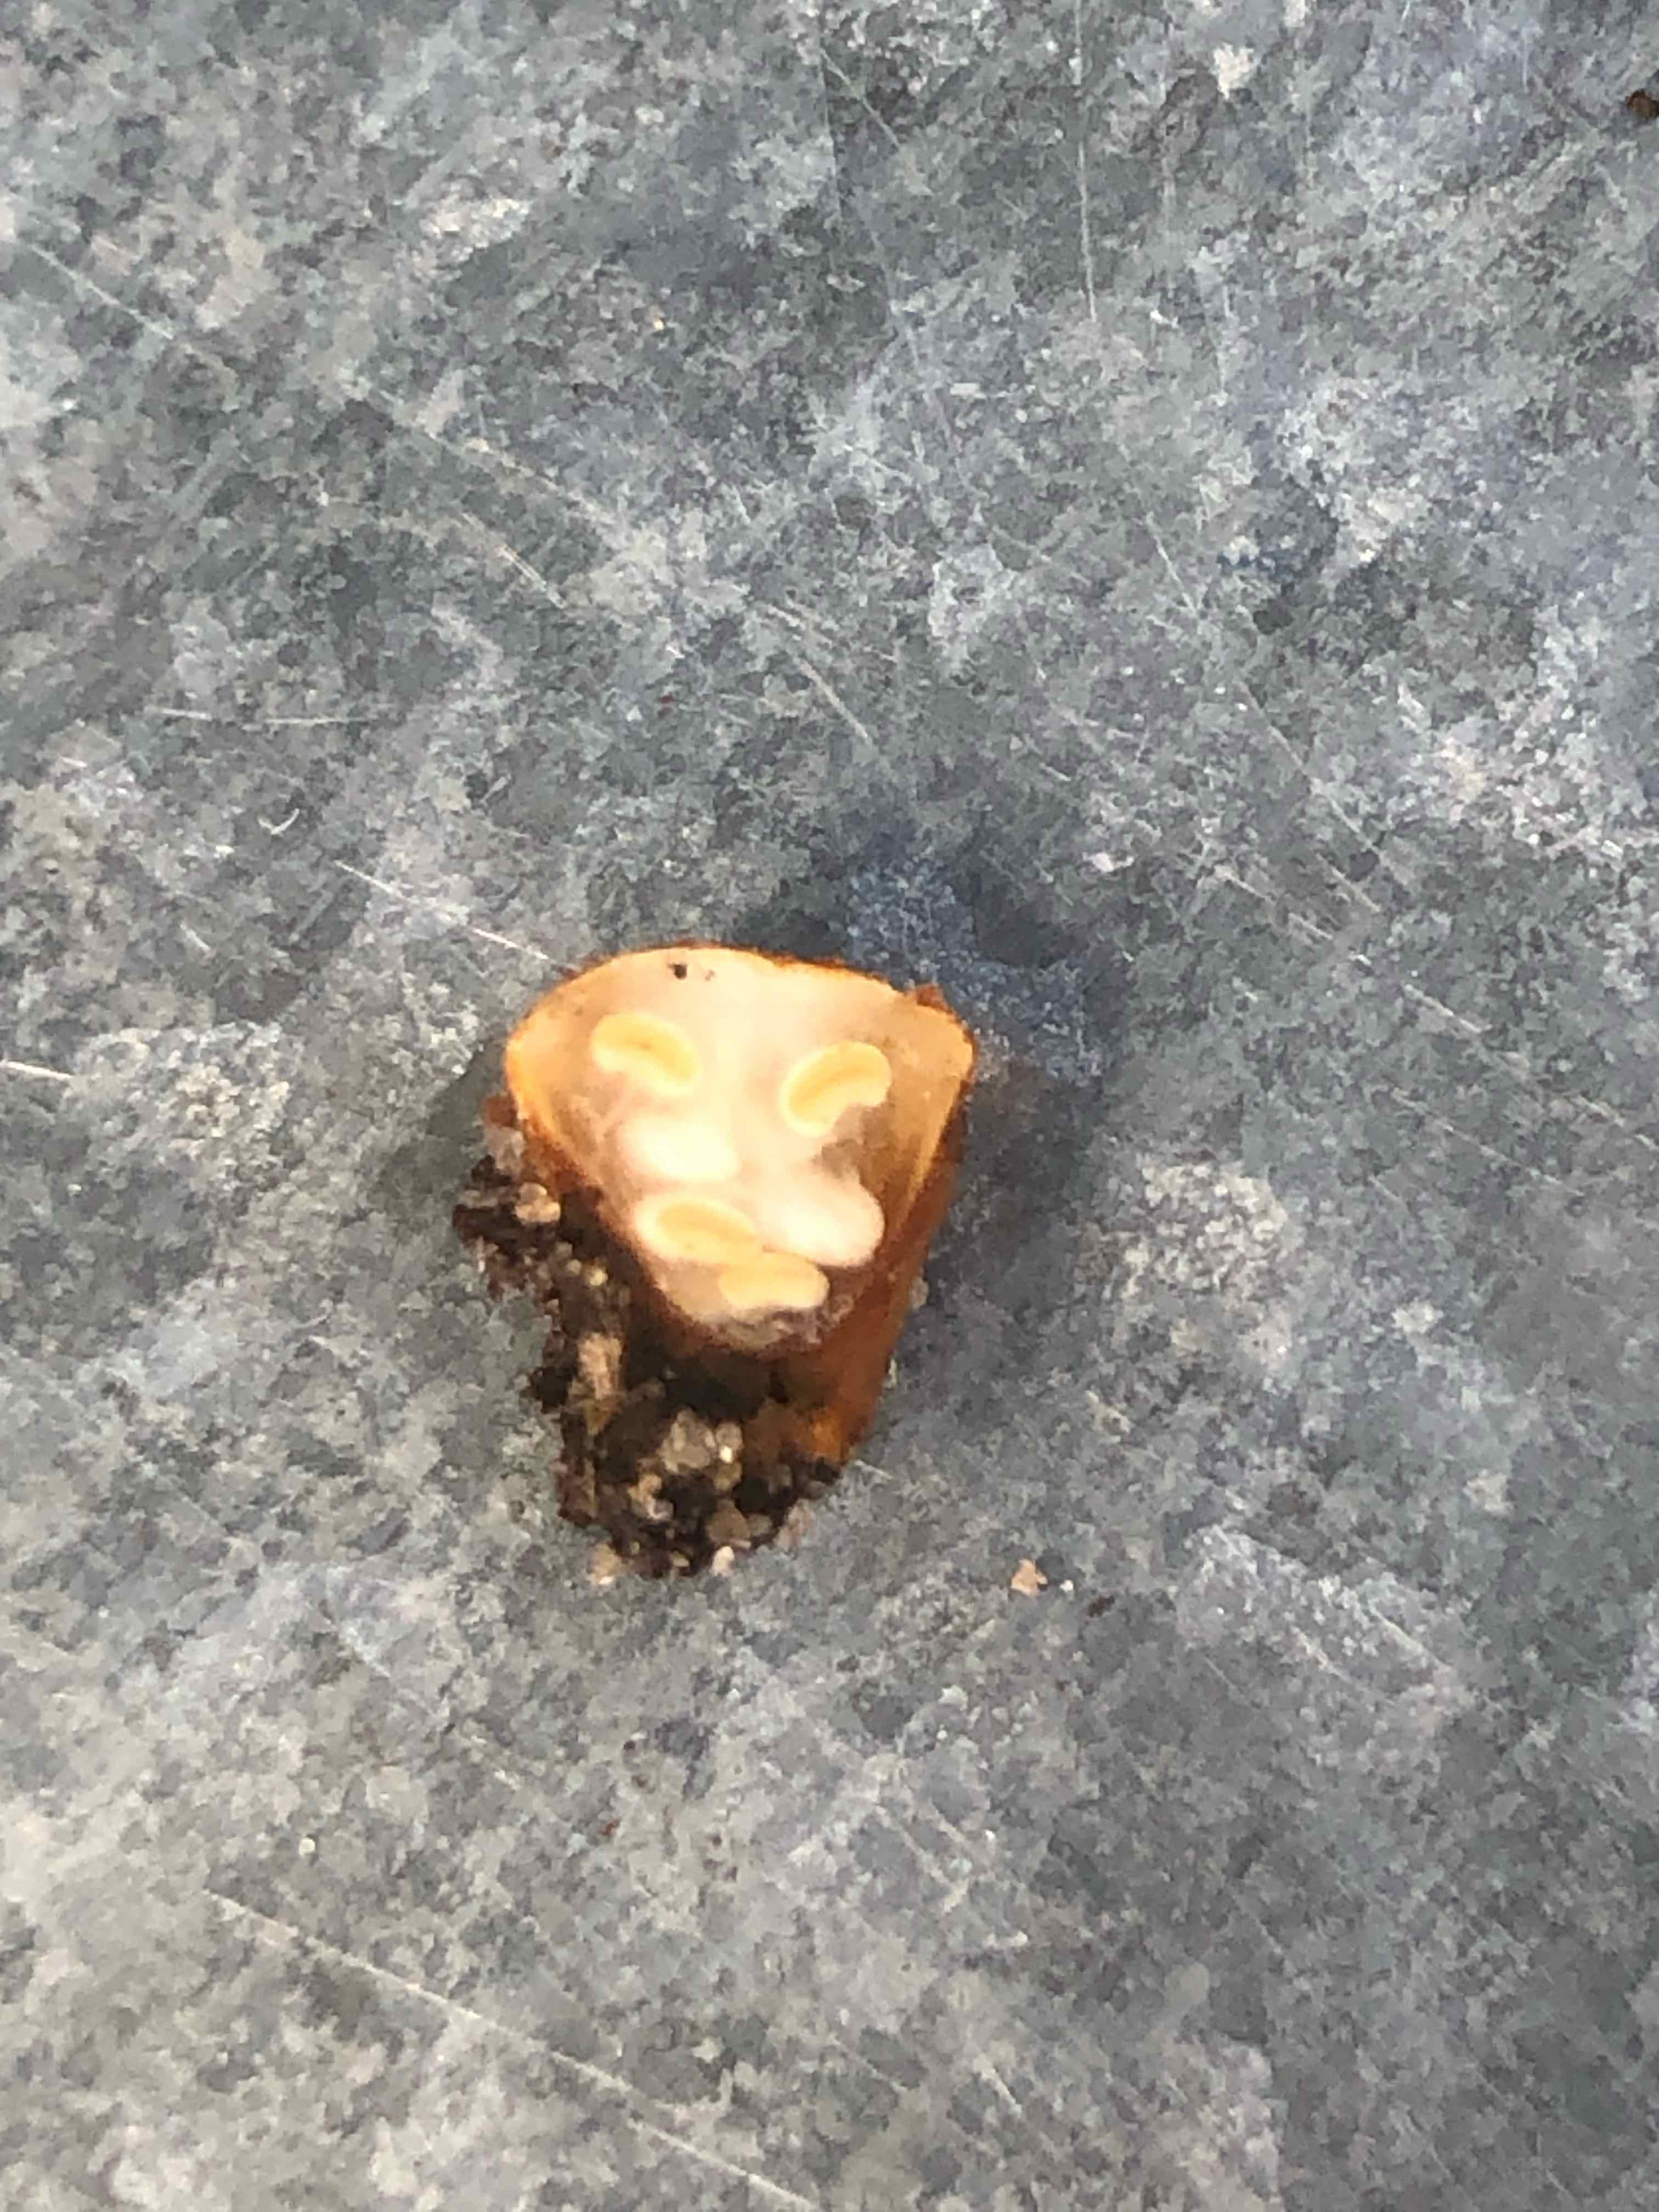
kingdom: Fungi
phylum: Basidiomycota
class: Agaricomycetes
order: Agaricales
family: Nidulariaceae
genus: Crucibulum
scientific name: Crucibulum crucibuliforme
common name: krukkesvamp
